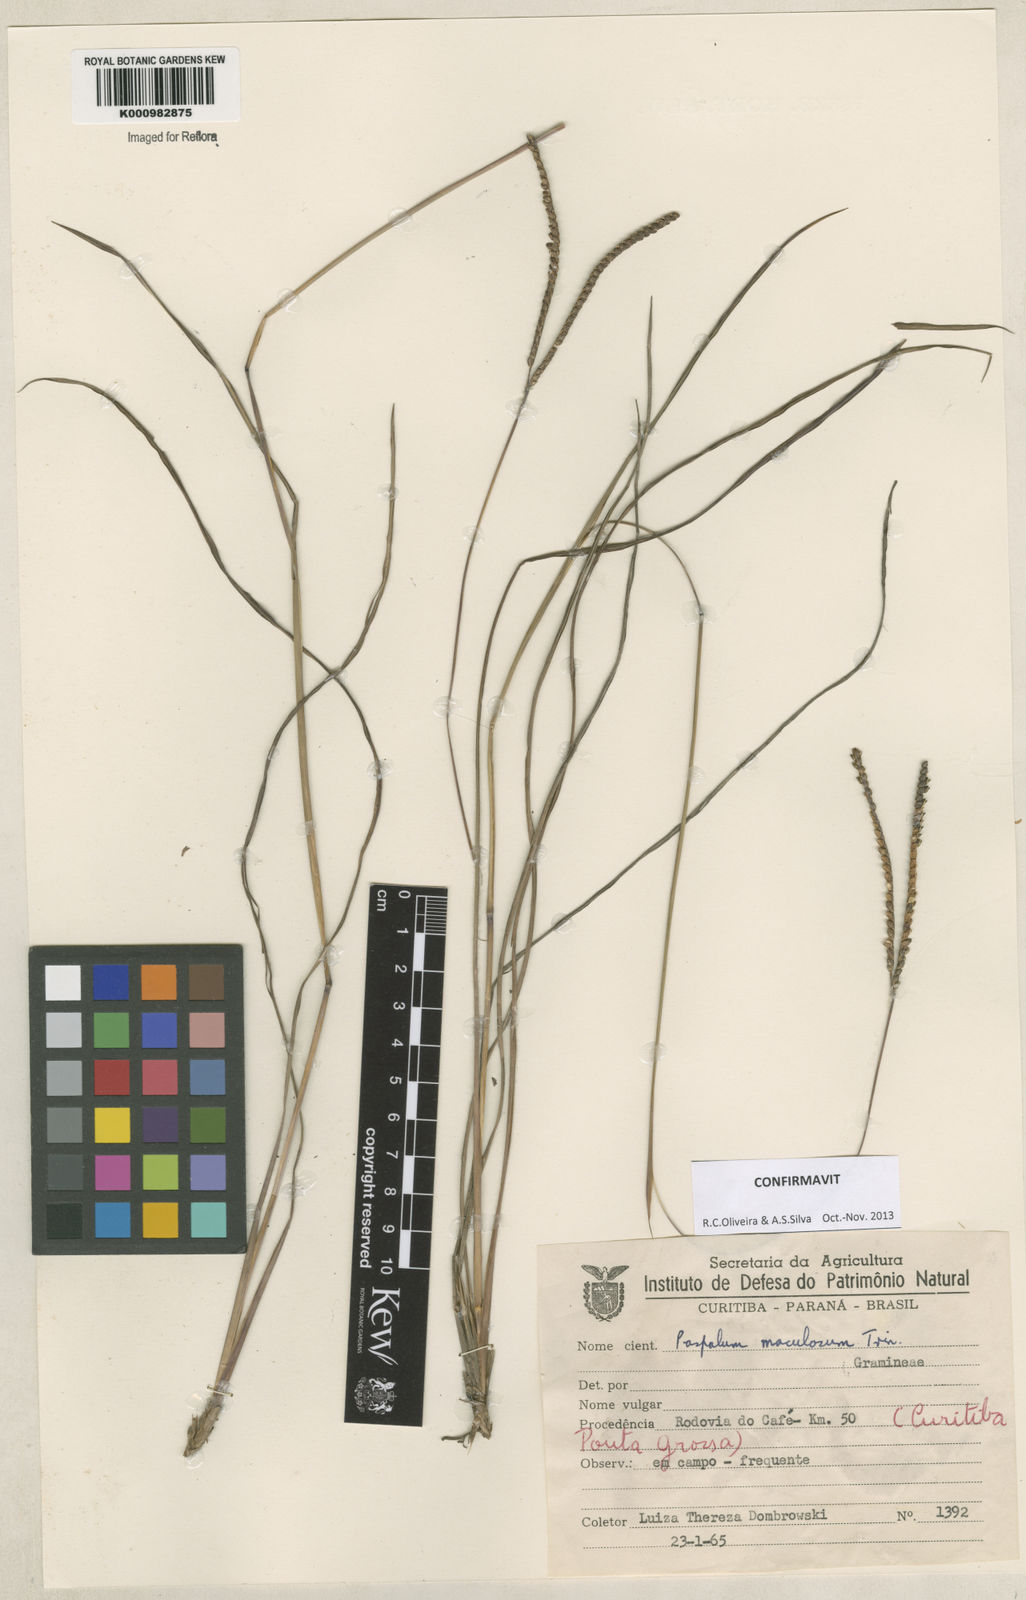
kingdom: Plantae
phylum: Tracheophyta
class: Liliopsida
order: Poales
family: Poaceae
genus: Paspalum
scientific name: Paspalum maculosum
